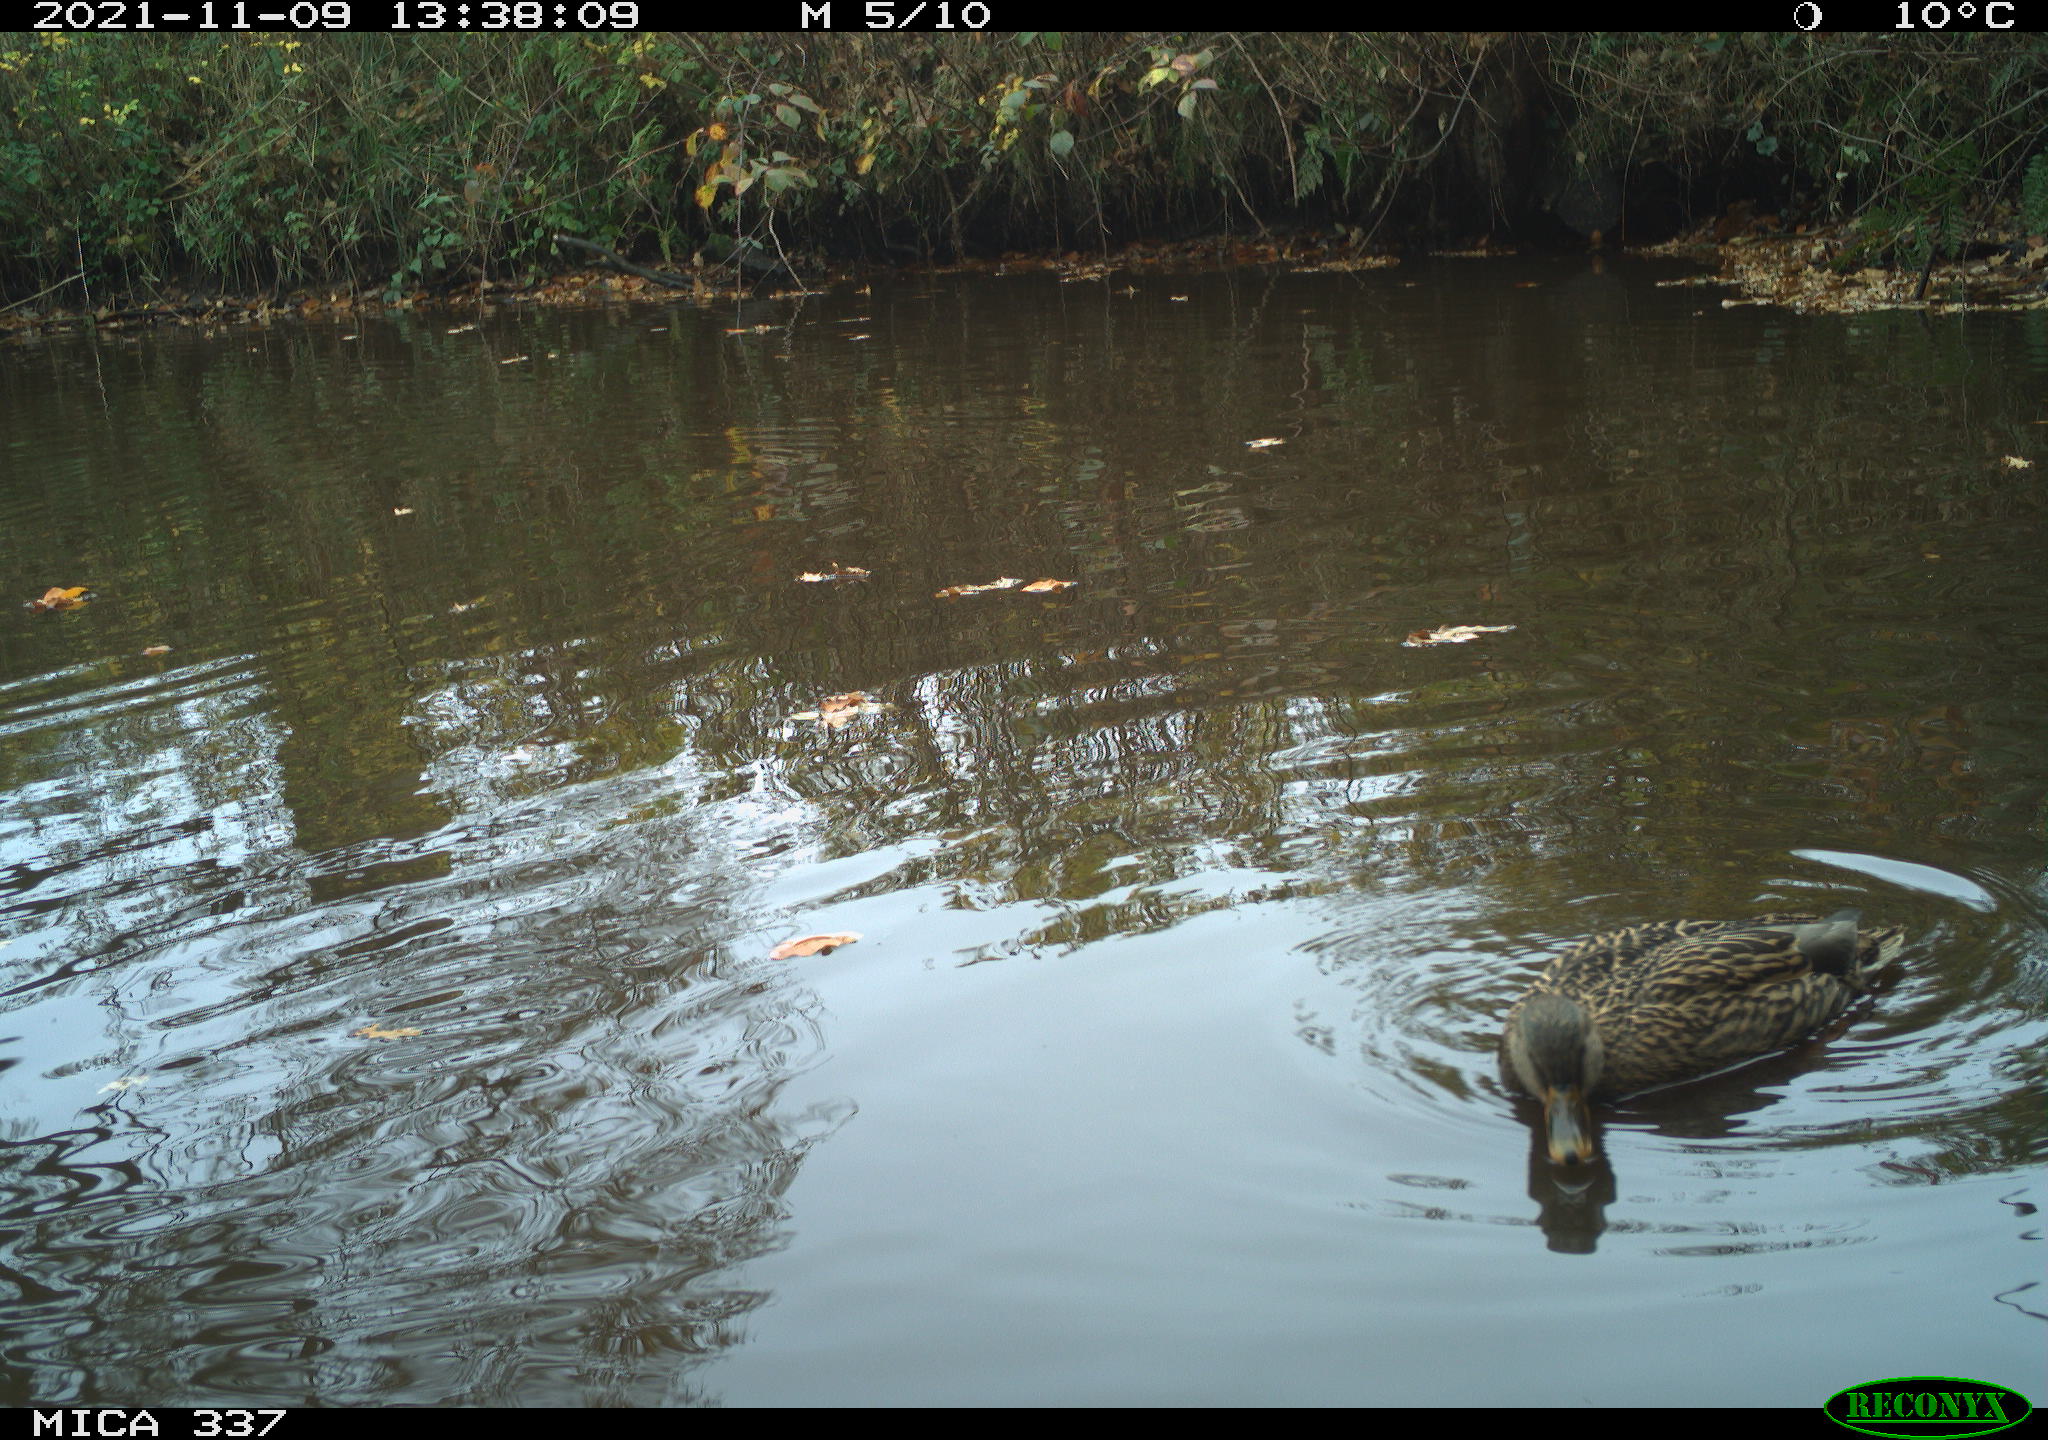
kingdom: Animalia
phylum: Chordata
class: Aves
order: Anseriformes
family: Anatidae
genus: Anas
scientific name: Anas platyrhynchos
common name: Mallard
